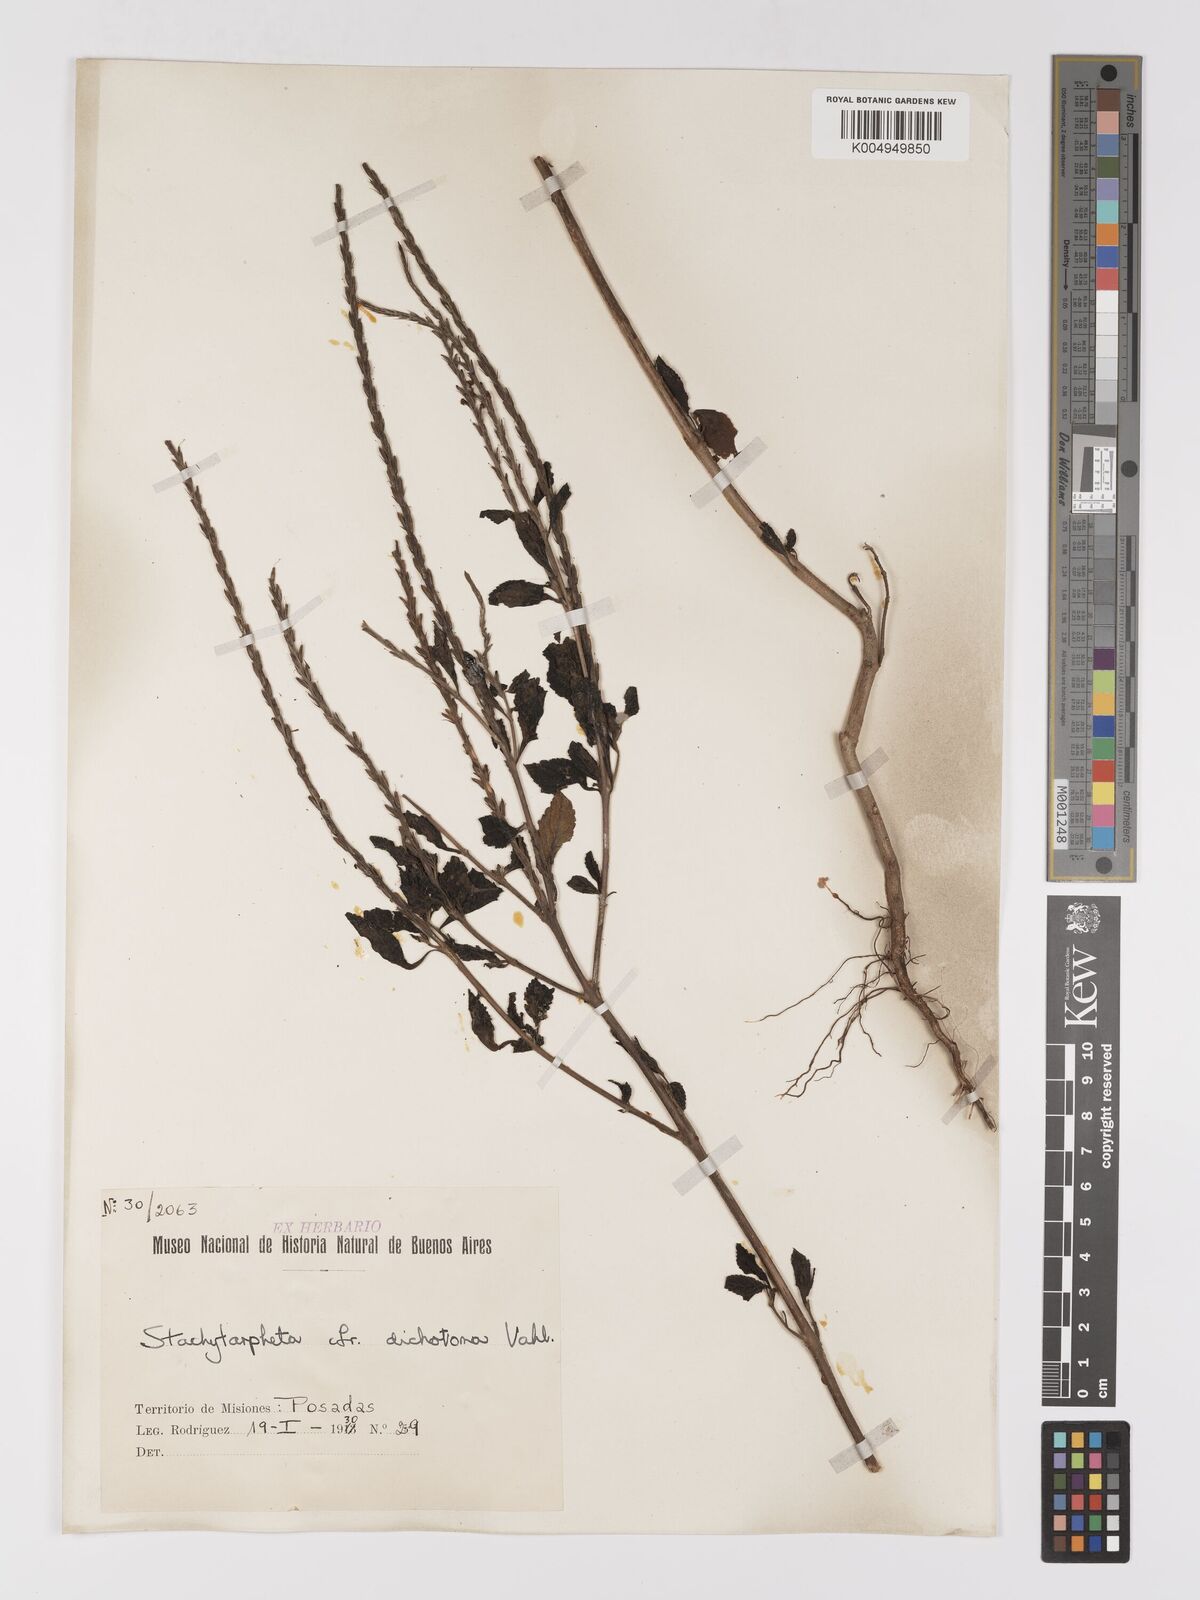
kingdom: Plantae
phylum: Tracheophyta
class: Magnoliopsida
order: Lamiales
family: Verbenaceae
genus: Stachytarpheta
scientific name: Stachytarpheta
